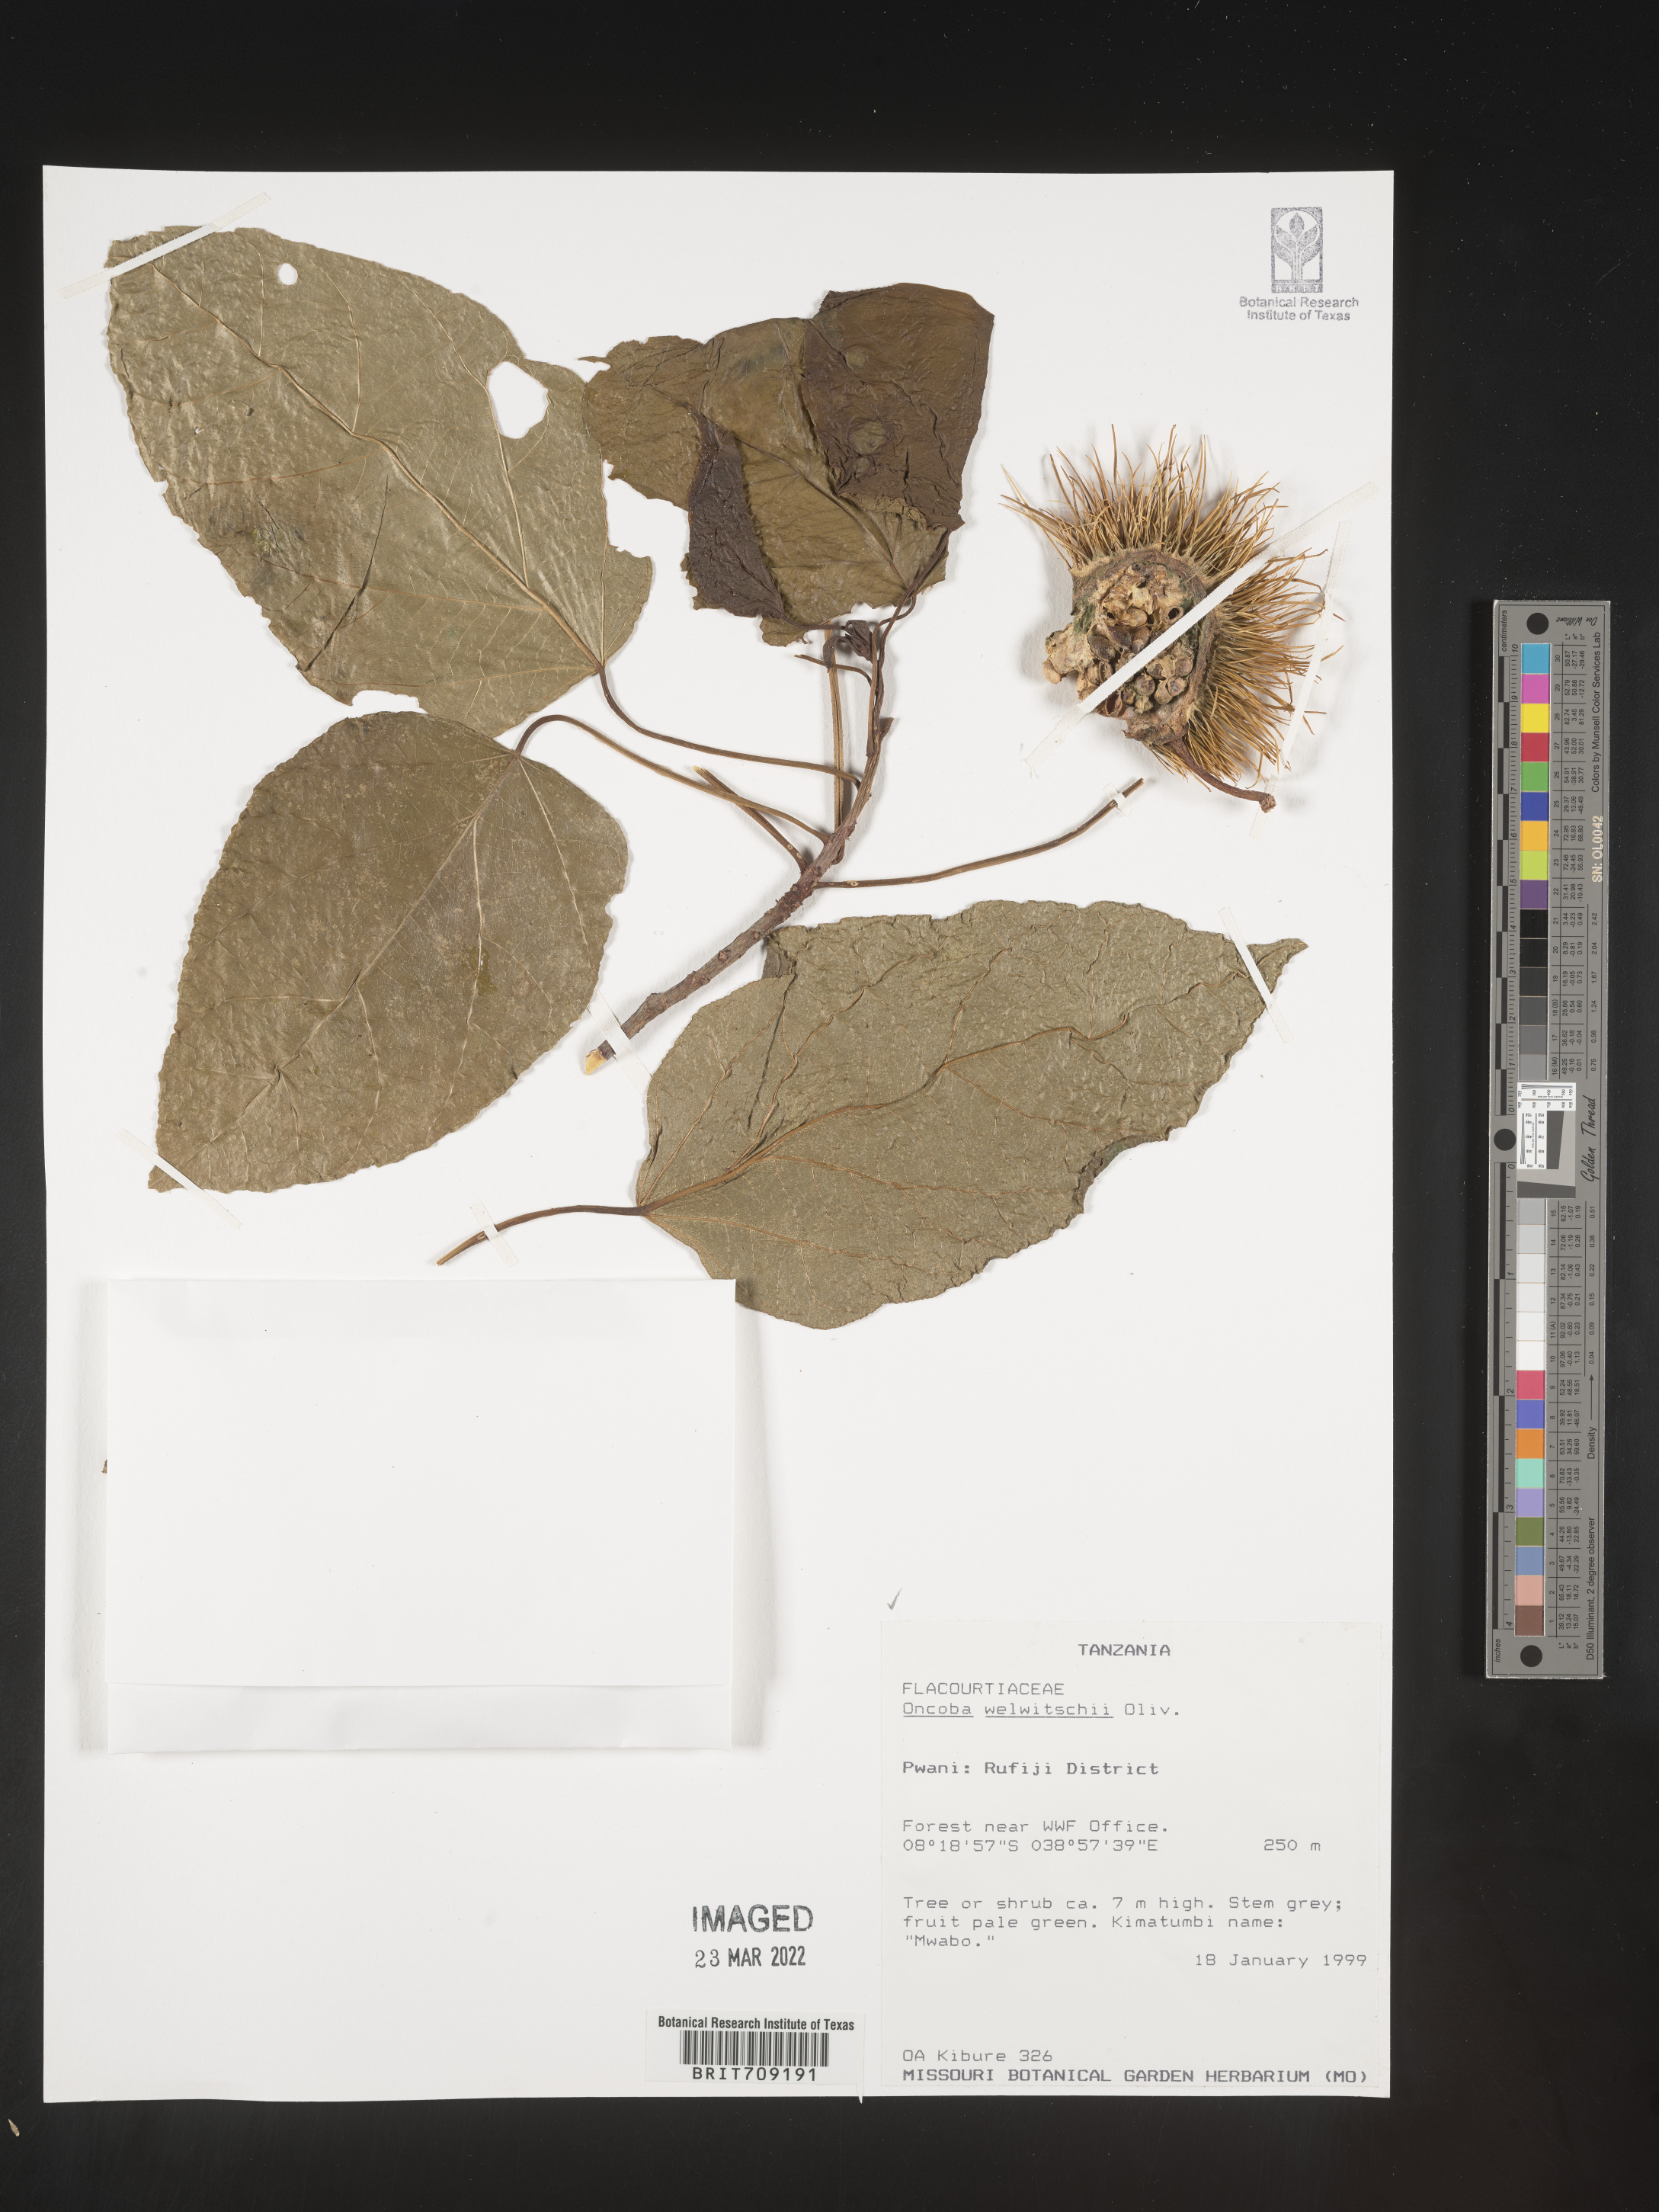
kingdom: Plantae
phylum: Tracheophyta
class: Magnoliopsida
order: Malpighiales
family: Salicaceae
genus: Oncoba
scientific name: Oncoba
